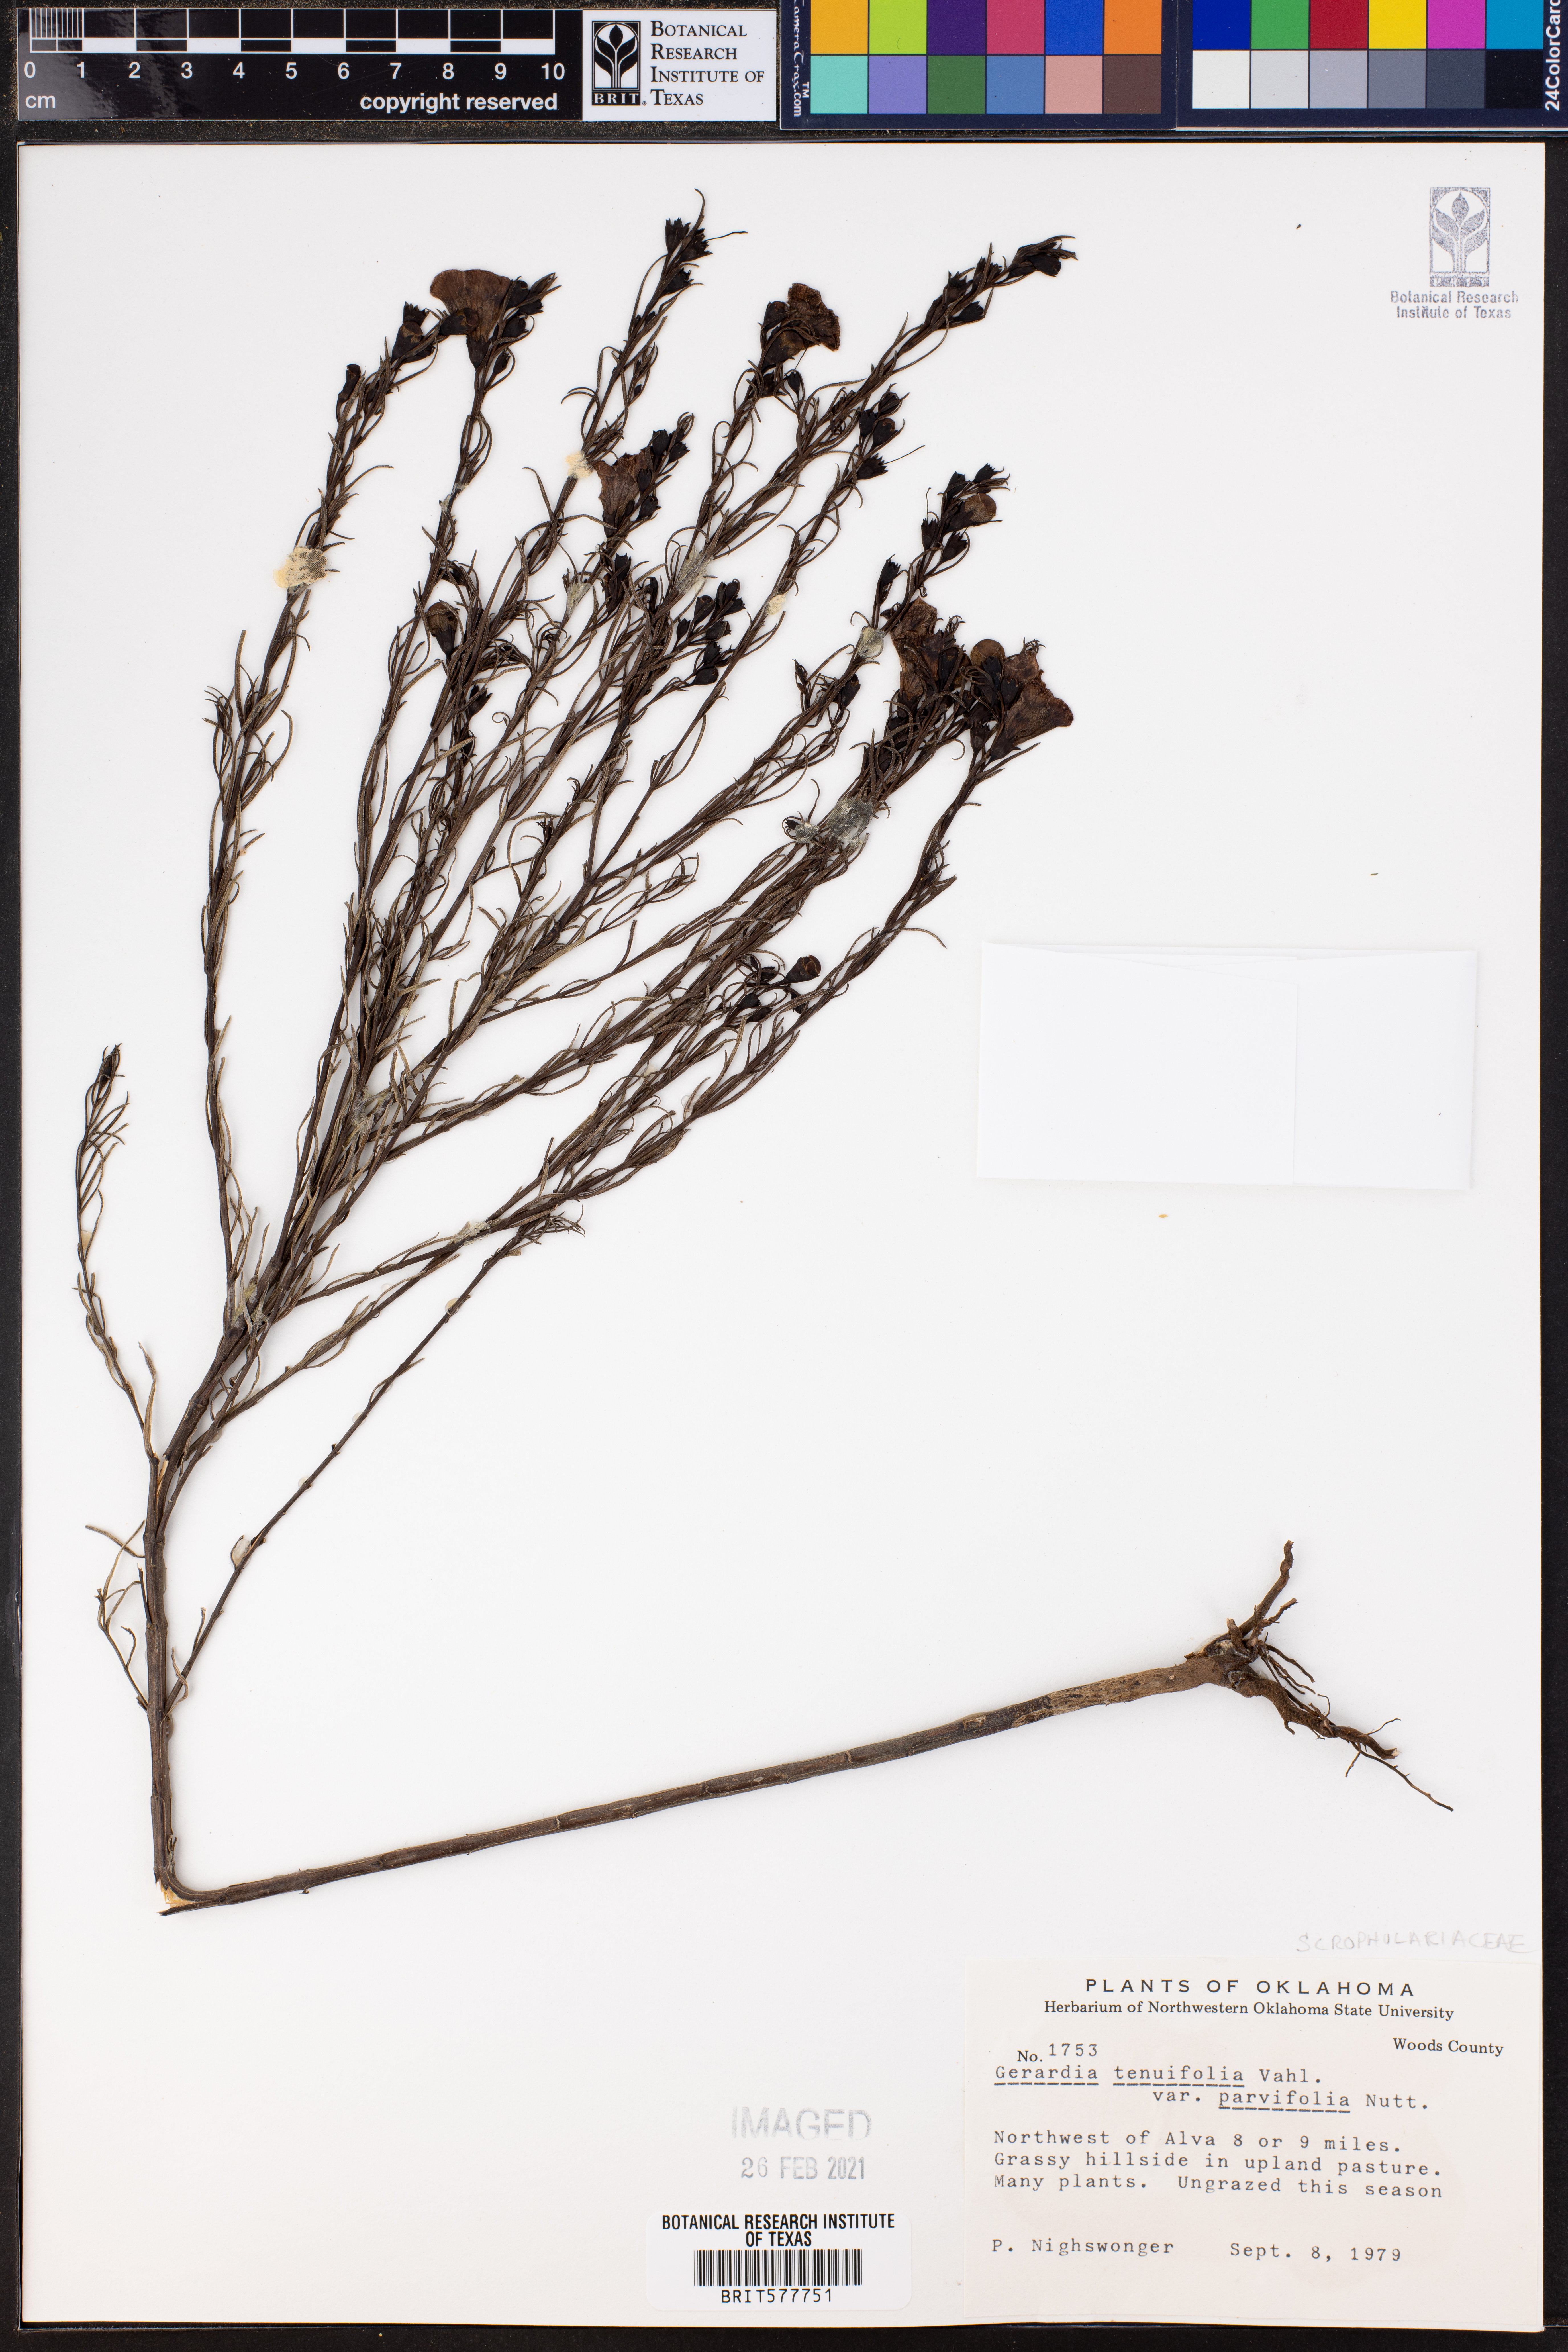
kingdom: Plantae
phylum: Tracheophyta
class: Magnoliopsida
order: Lamiales
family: Orobanchaceae
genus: Agalinis
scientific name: Agalinis tenuifolia
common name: Slender agalinis
